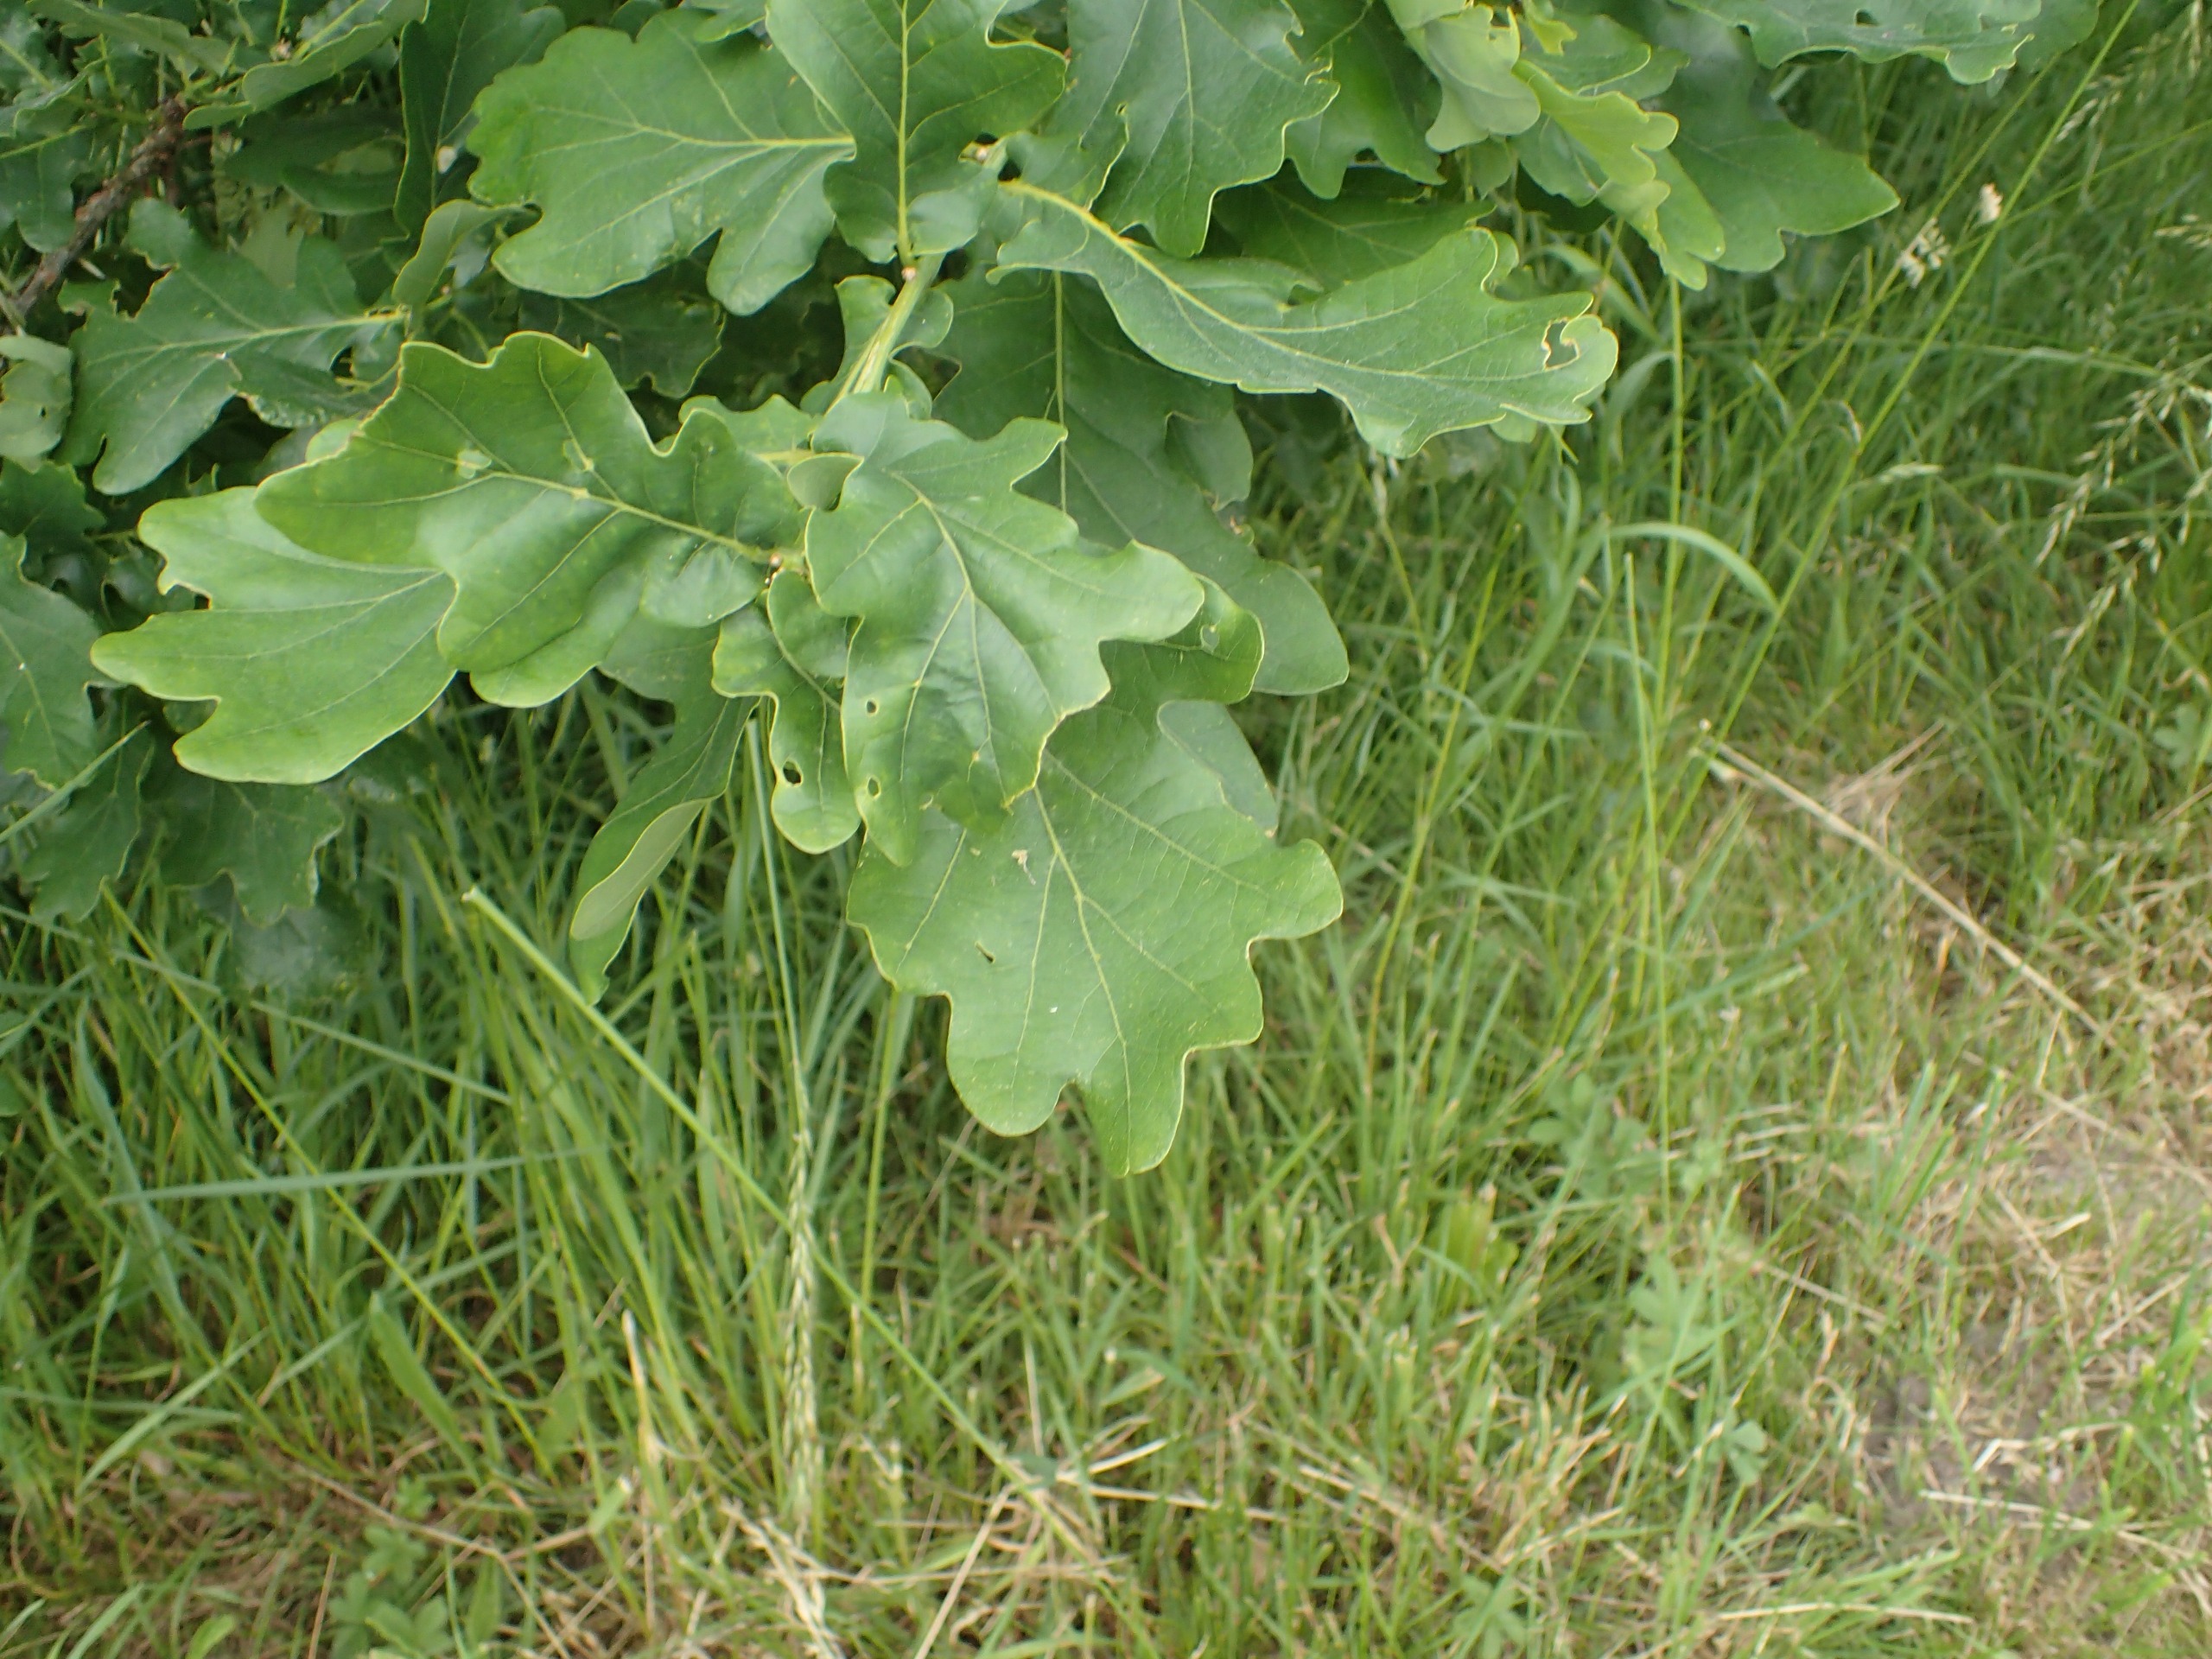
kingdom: Plantae
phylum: Tracheophyta
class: Magnoliopsida
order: Fagales
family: Fagaceae
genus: Quercus
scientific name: Quercus robur
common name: Stilk-eg/almindelig eg
